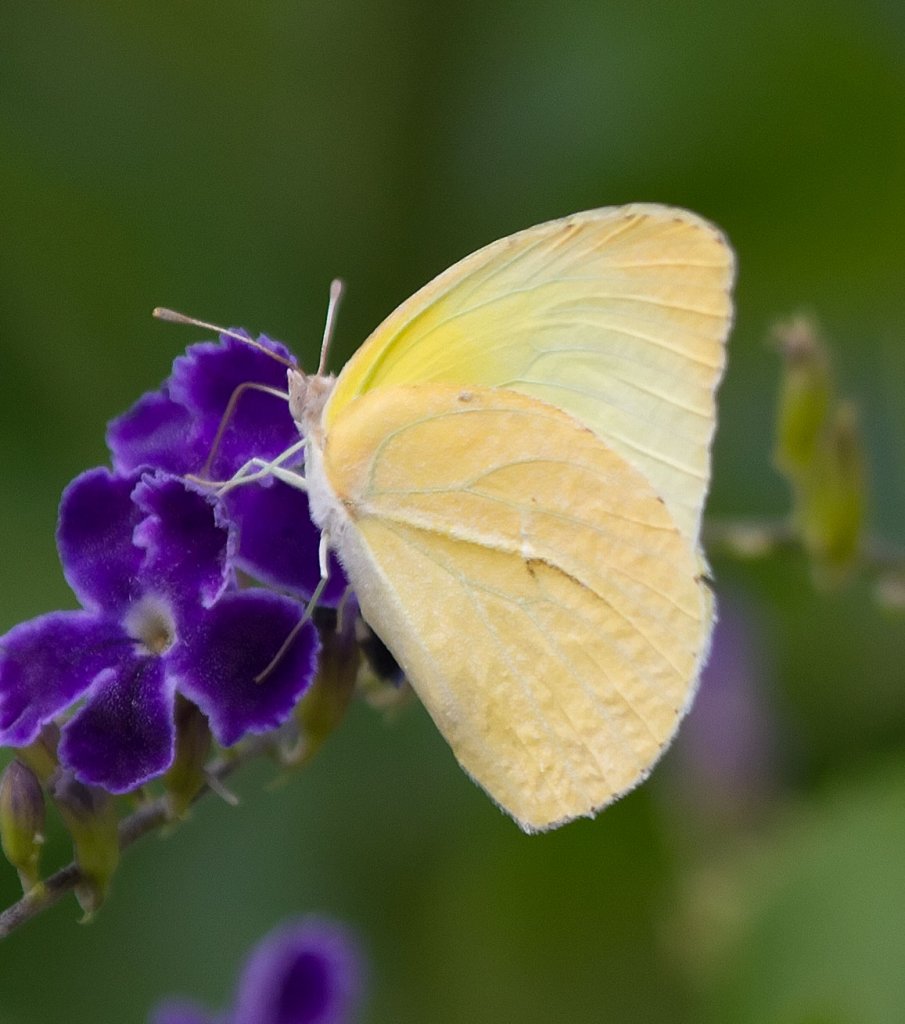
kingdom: Animalia
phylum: Arthropoda
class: Insecta
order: Lepidoptera
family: Pieridae
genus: Kricogonia
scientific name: Kricogonia lyside
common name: Lyside Sulphur
